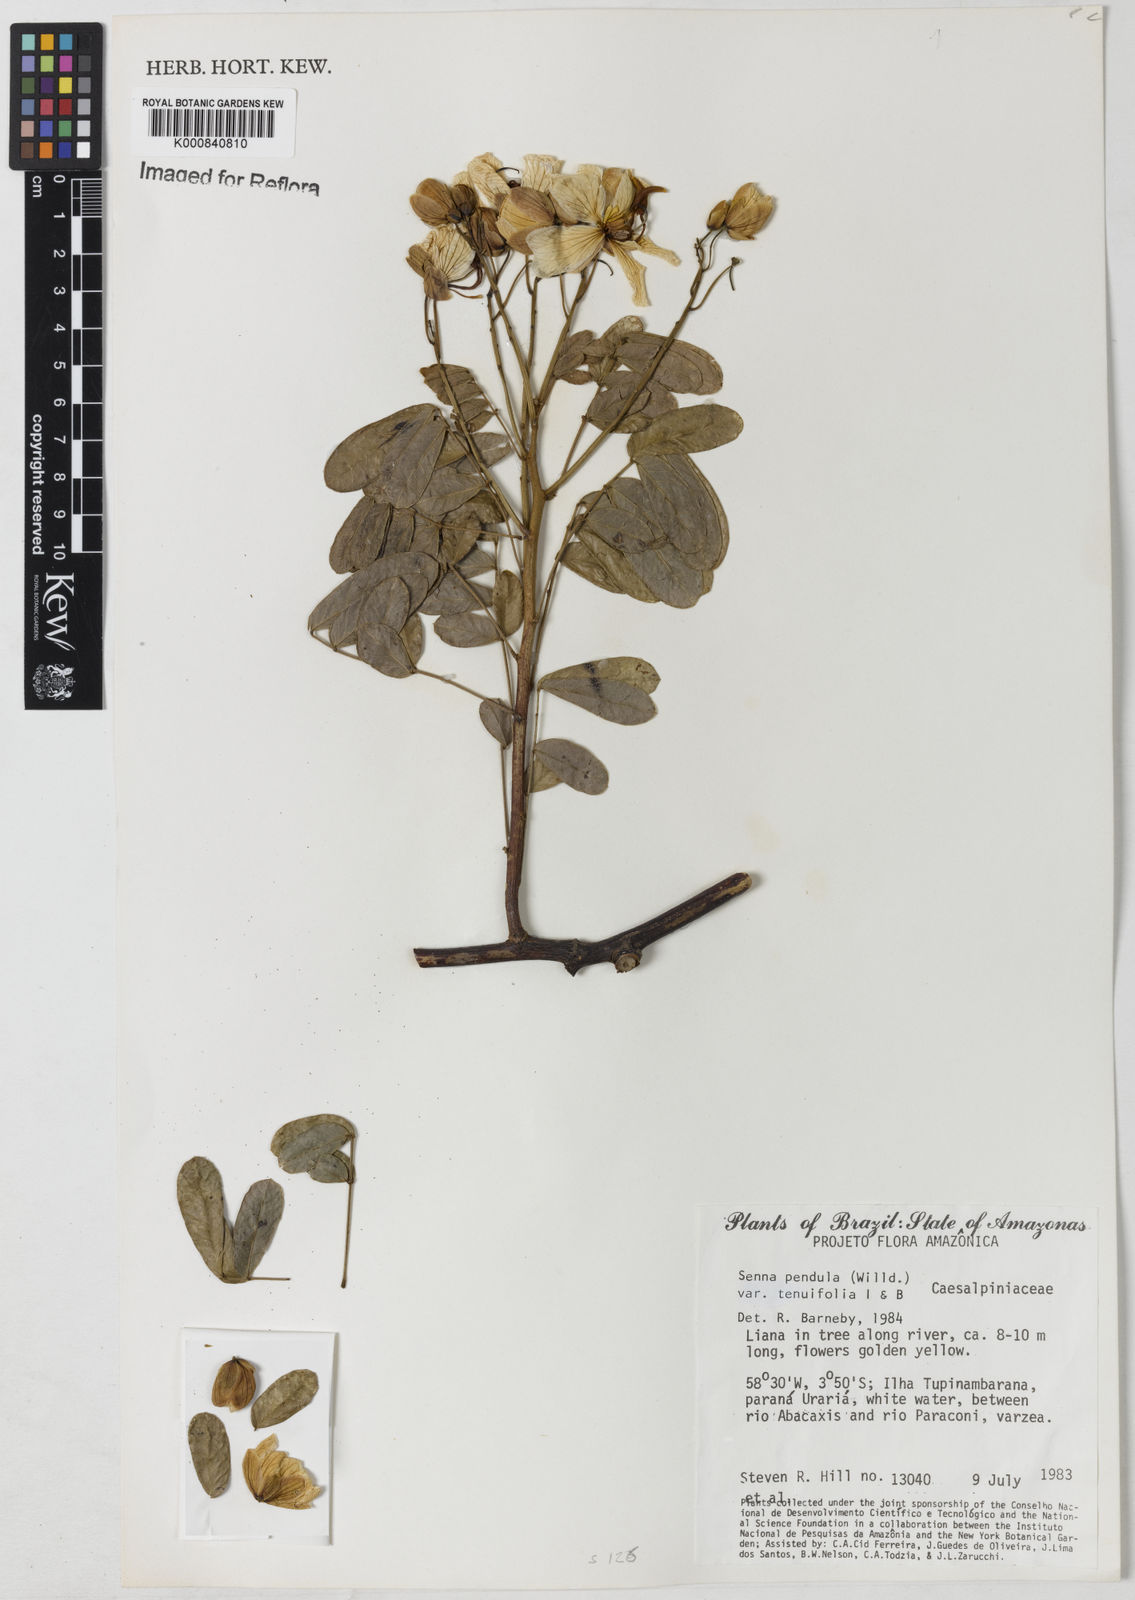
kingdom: Plantae
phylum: Tracheophyta
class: Magnoliopsida
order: Fabales
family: Fabaceae
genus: Senna
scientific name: Senna pendula
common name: Easter cassia
